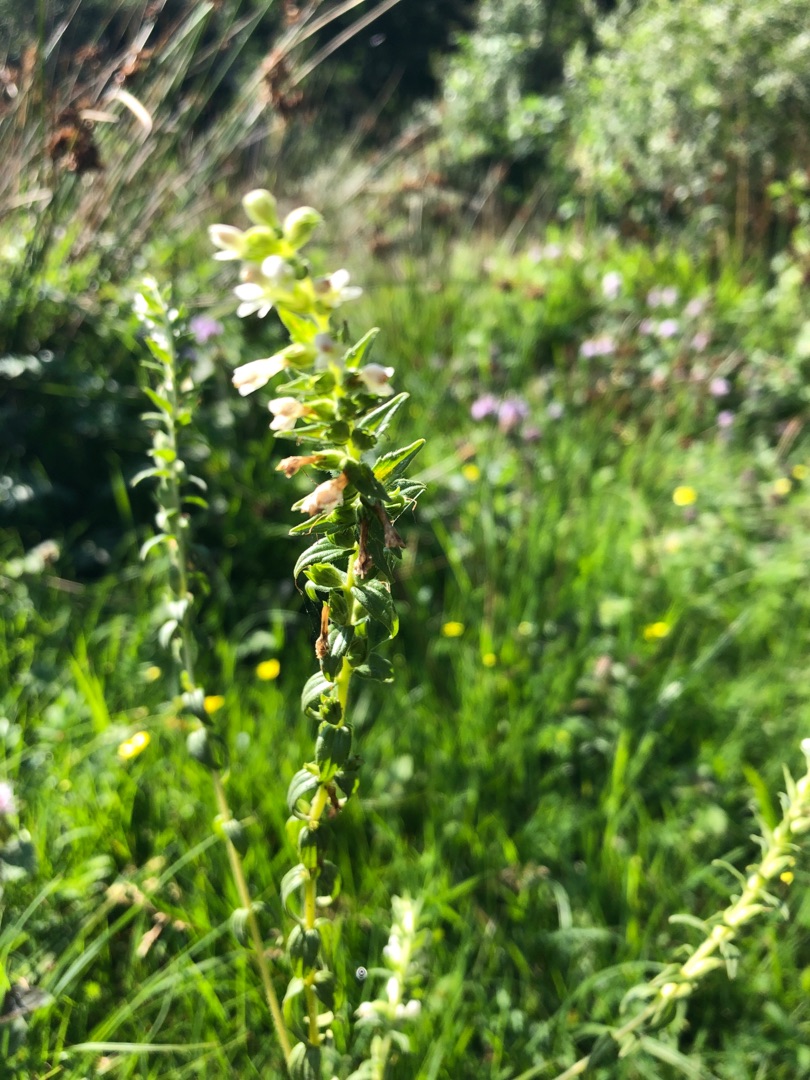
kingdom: Plantae
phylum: Tracheophyta
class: Magnoliopsida
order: Lamiales
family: Orobanchaceae
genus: Odontites
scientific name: Odontites
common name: Rødtopslægten
